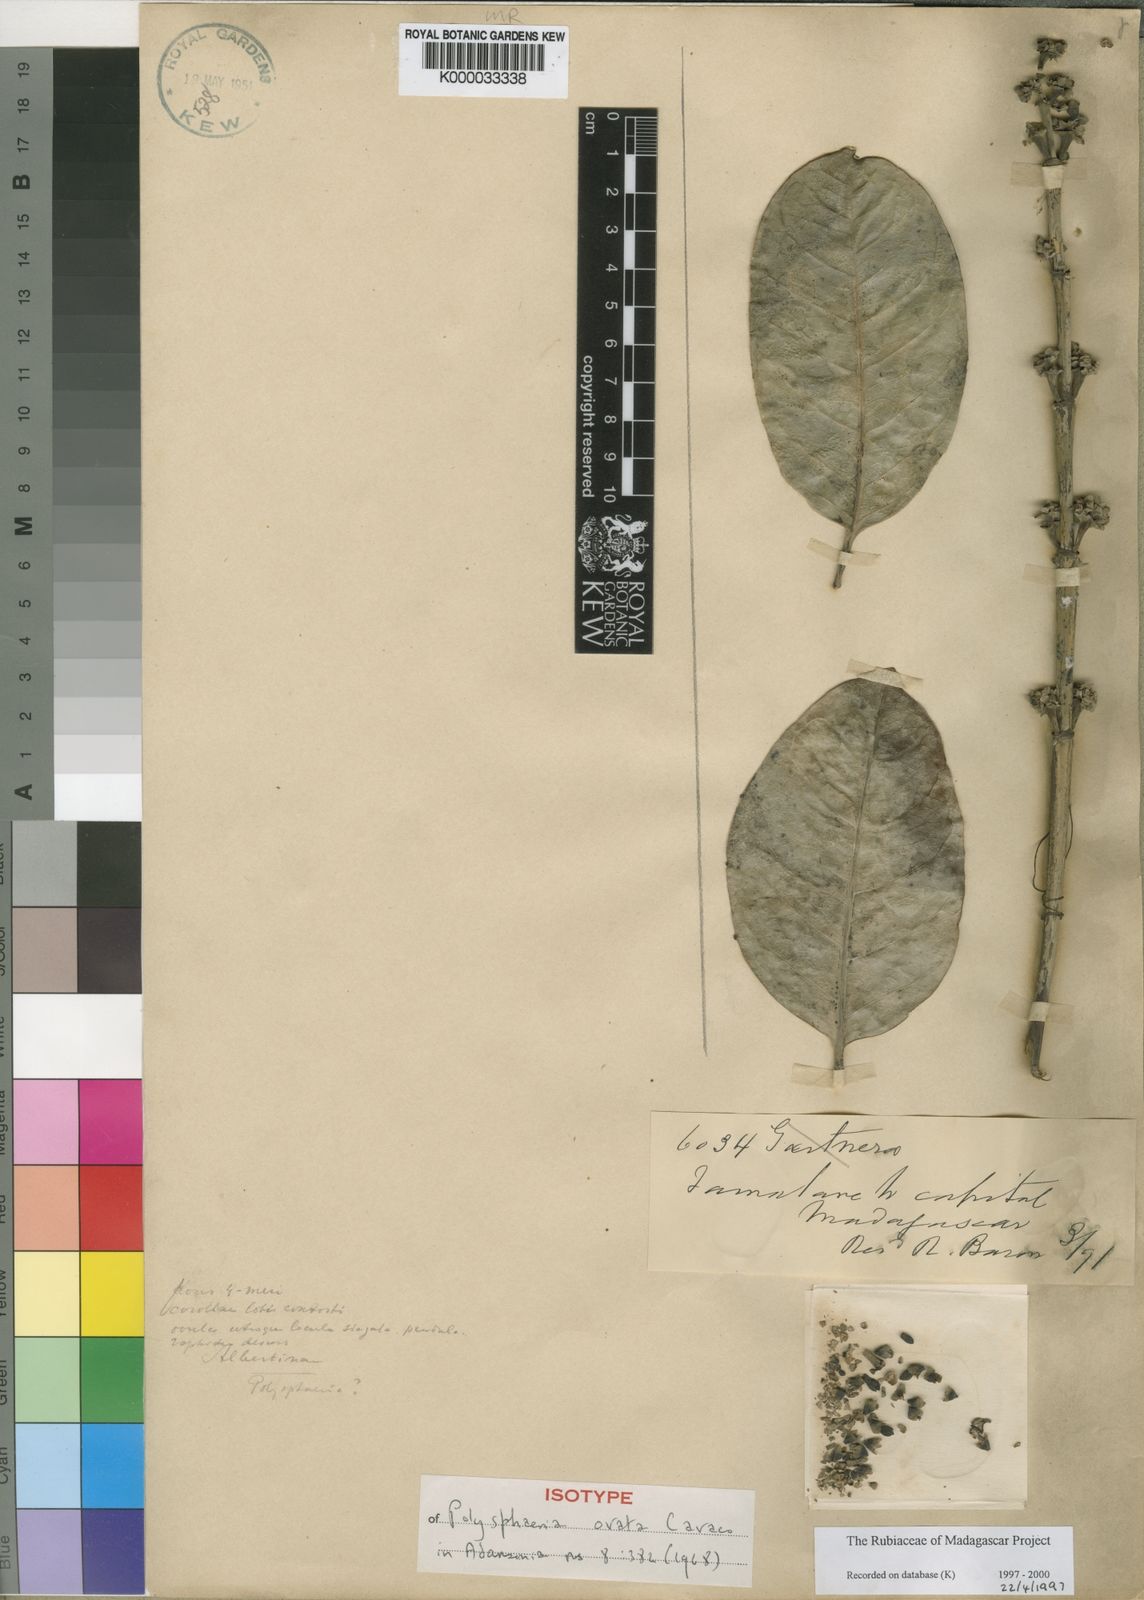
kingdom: Plantae
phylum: Tracheophyta
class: Magnoliopsida
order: Gentianales
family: Rubiaceae
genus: Polysphaeria
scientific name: Polysphaeria ovata
